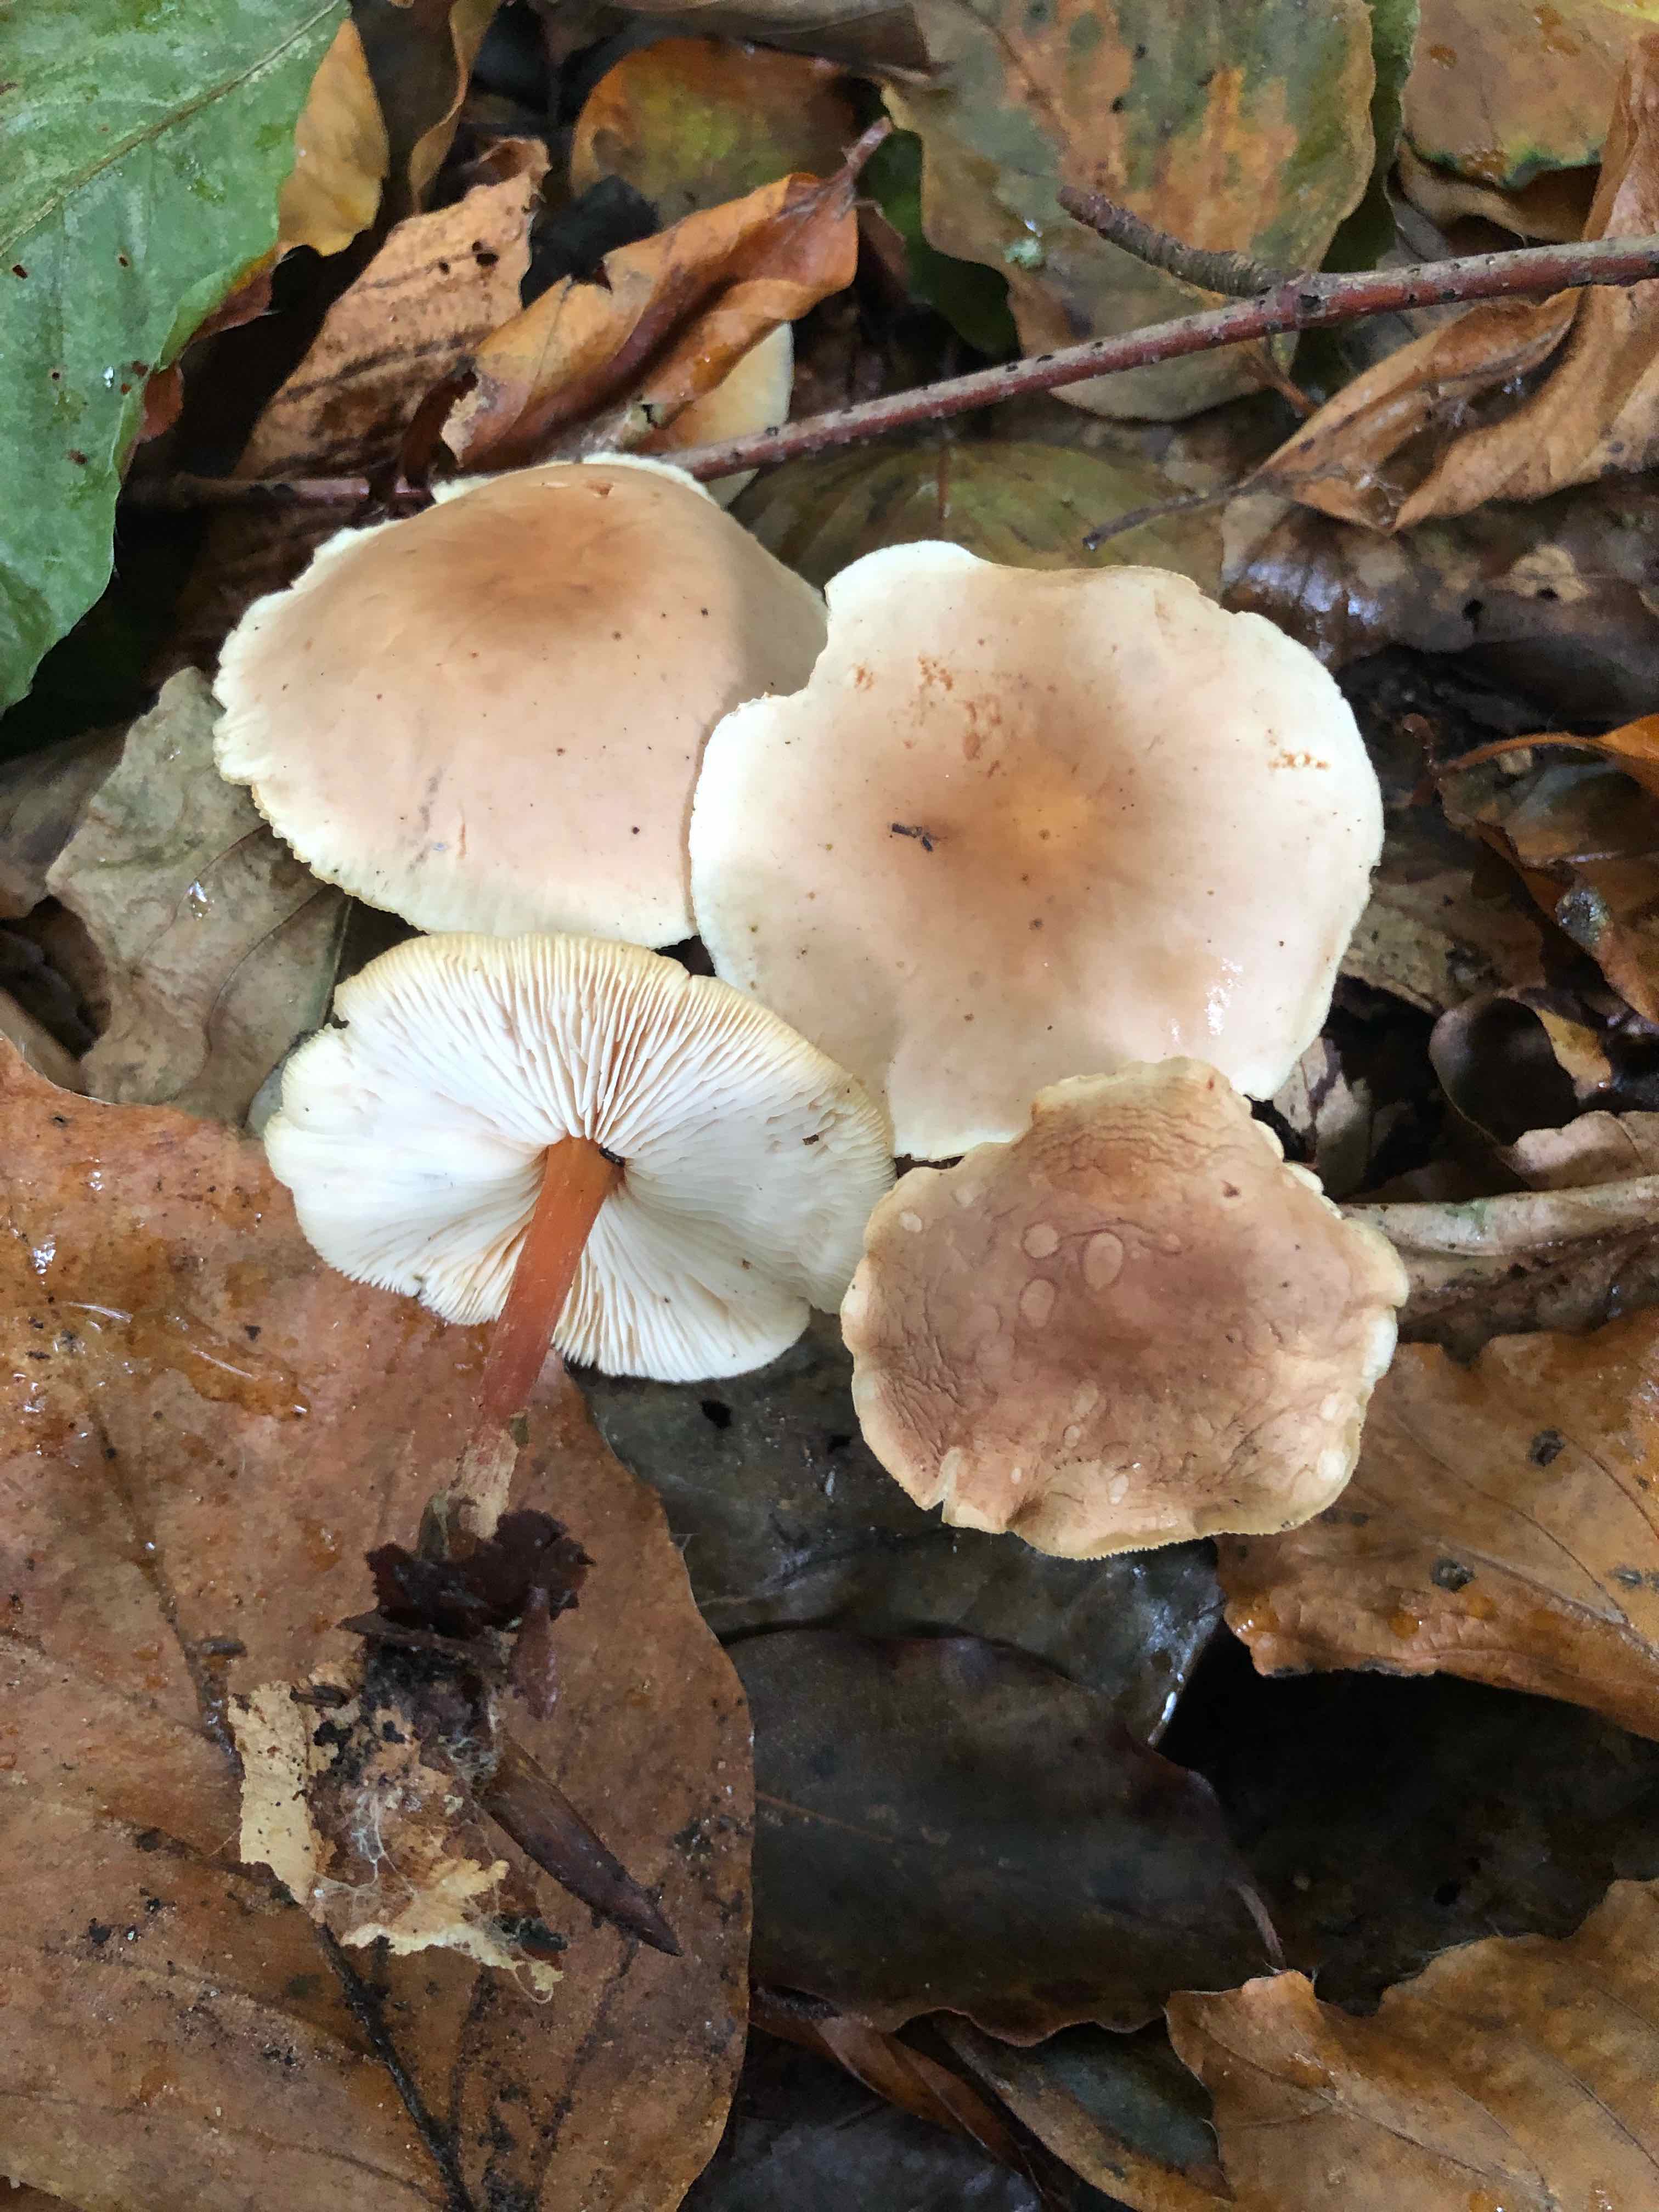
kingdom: Fungi
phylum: Basidiomycota
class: Agaricomycetes
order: Agaricales
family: Omphalotaceae
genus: Gymnopus
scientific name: Gymnopus dryophilus
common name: løv-fladhat
